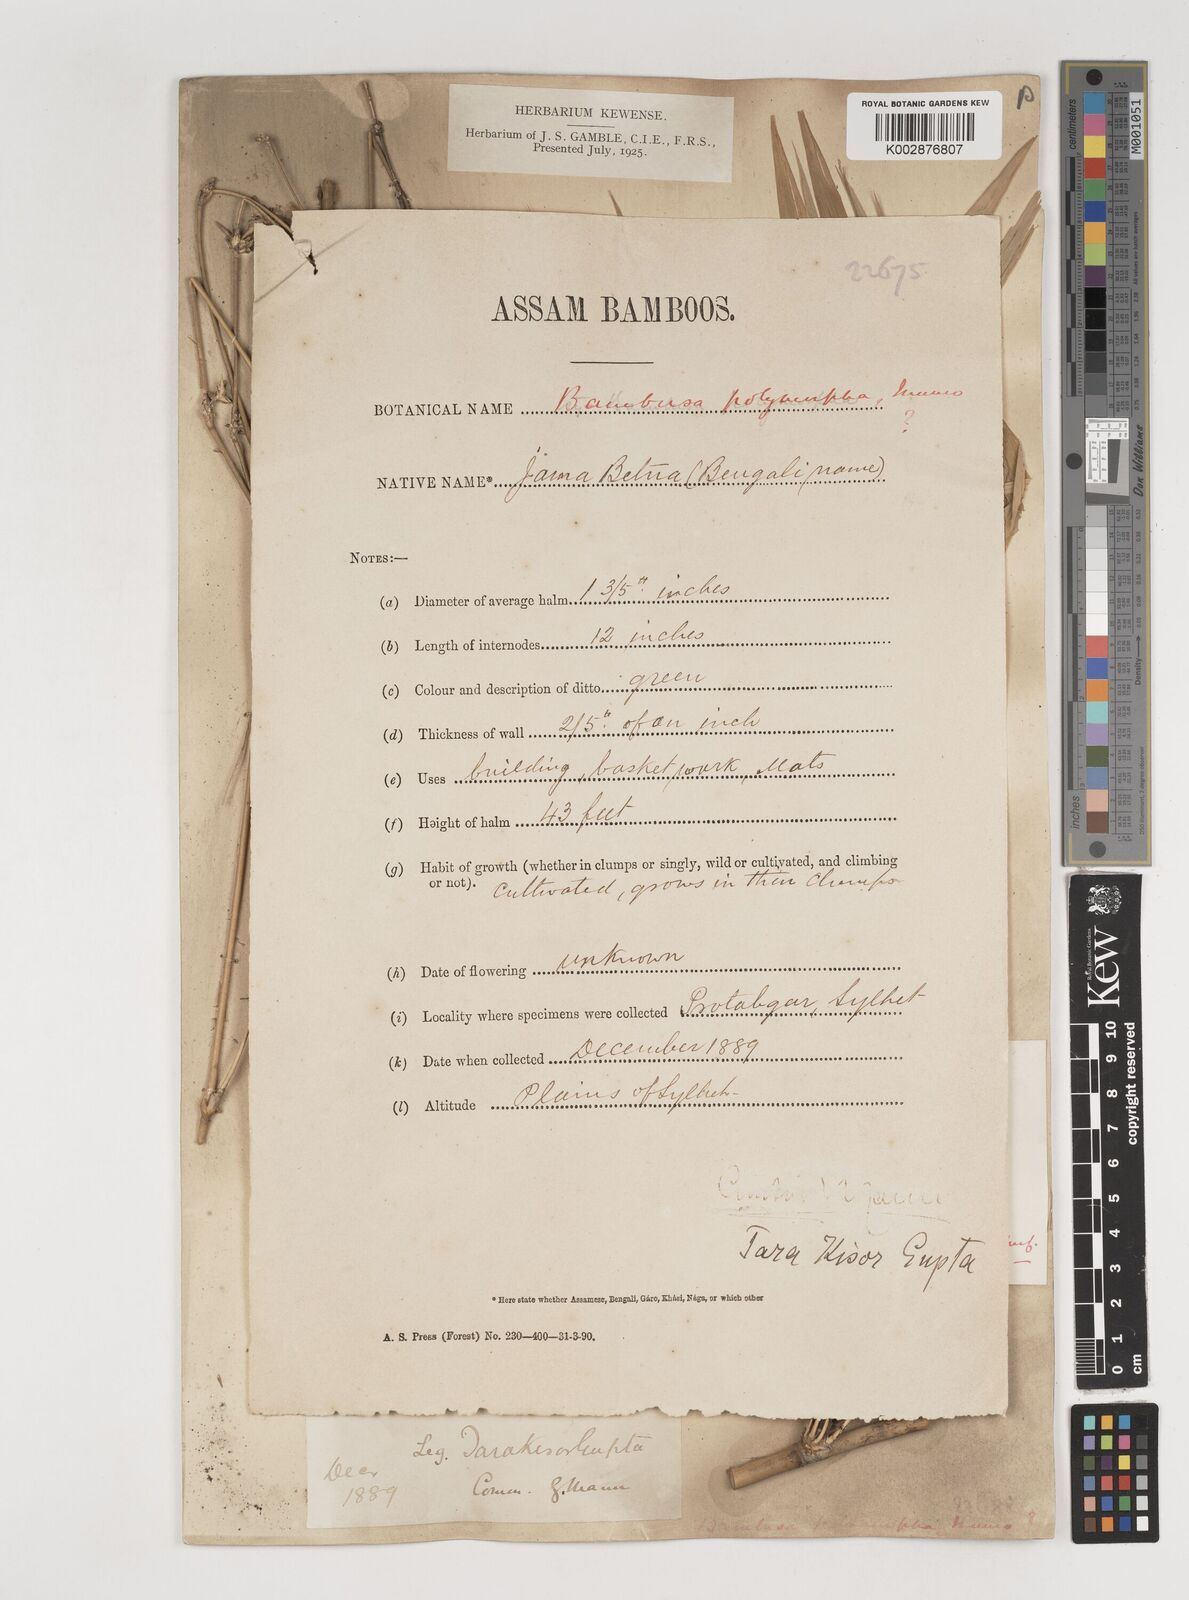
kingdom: Plantae
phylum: Tracheophyta
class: Liliopsida
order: Poales
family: Poaceae
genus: Bambusa
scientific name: Bambusa polymorpha
